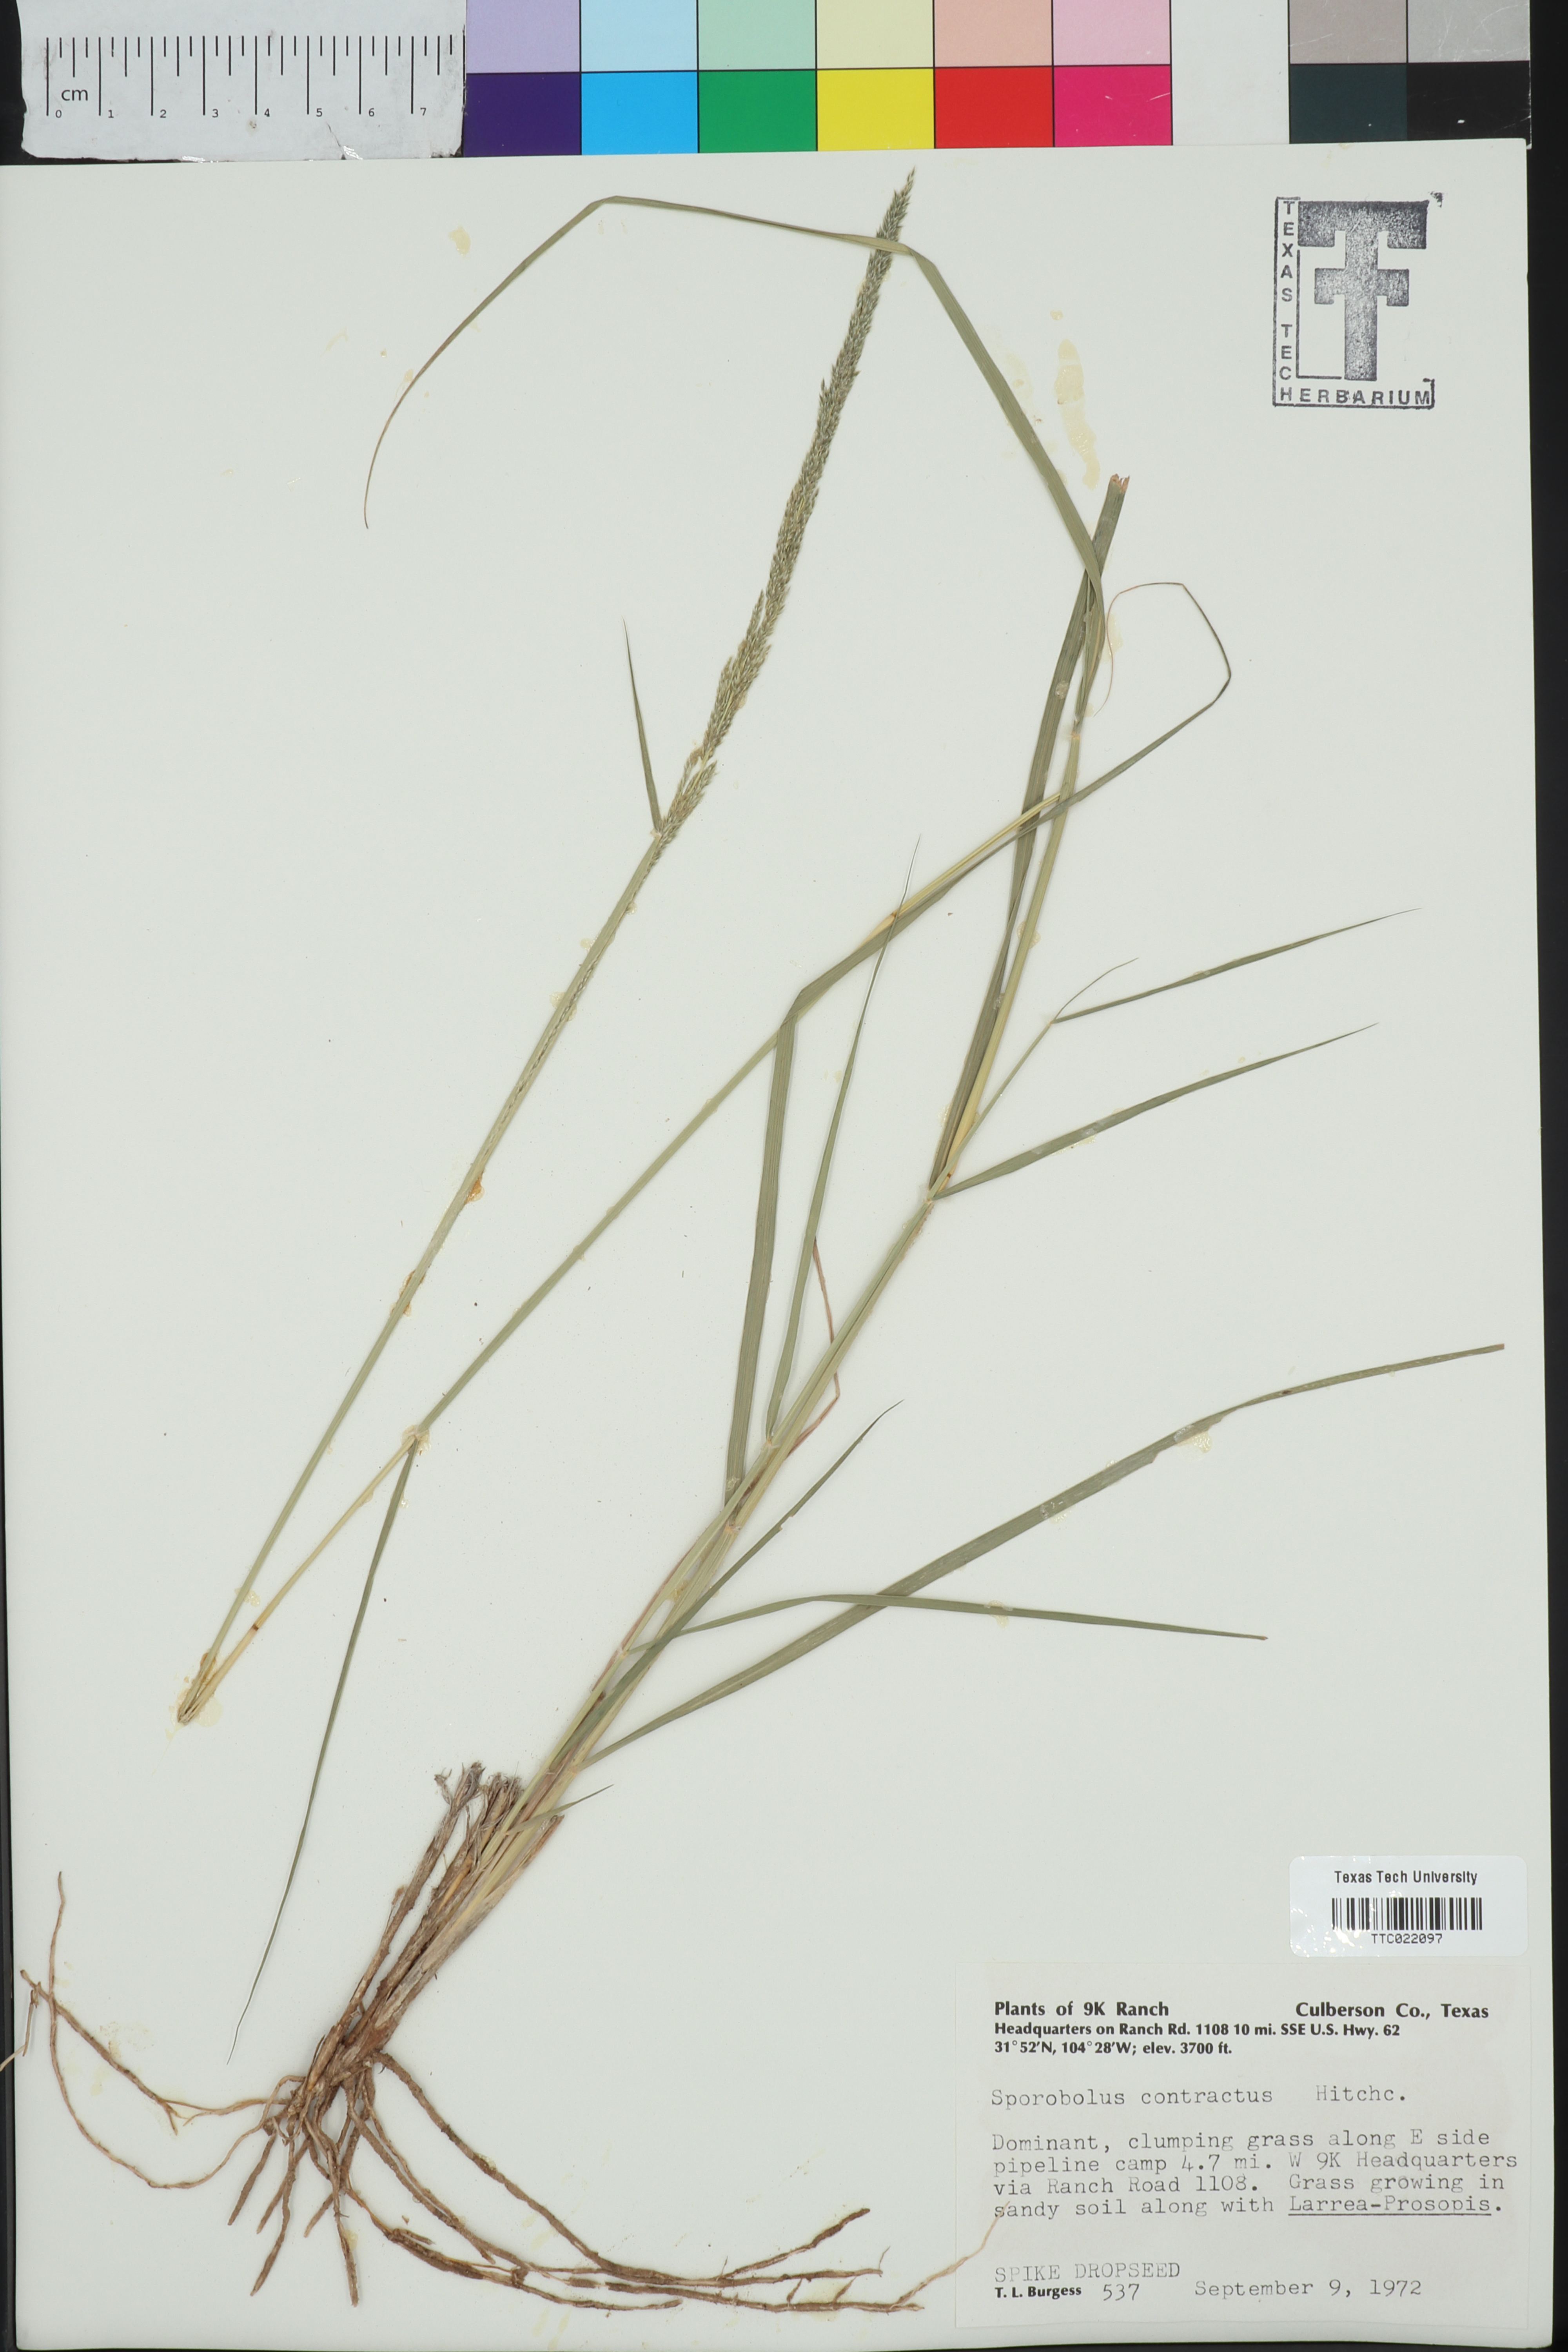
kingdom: Plantae
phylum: Tracheophyta
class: Liliopsida
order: Poales
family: Poaceae
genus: Sporobolus
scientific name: Sporobolus contractus
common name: Spike dropseed
